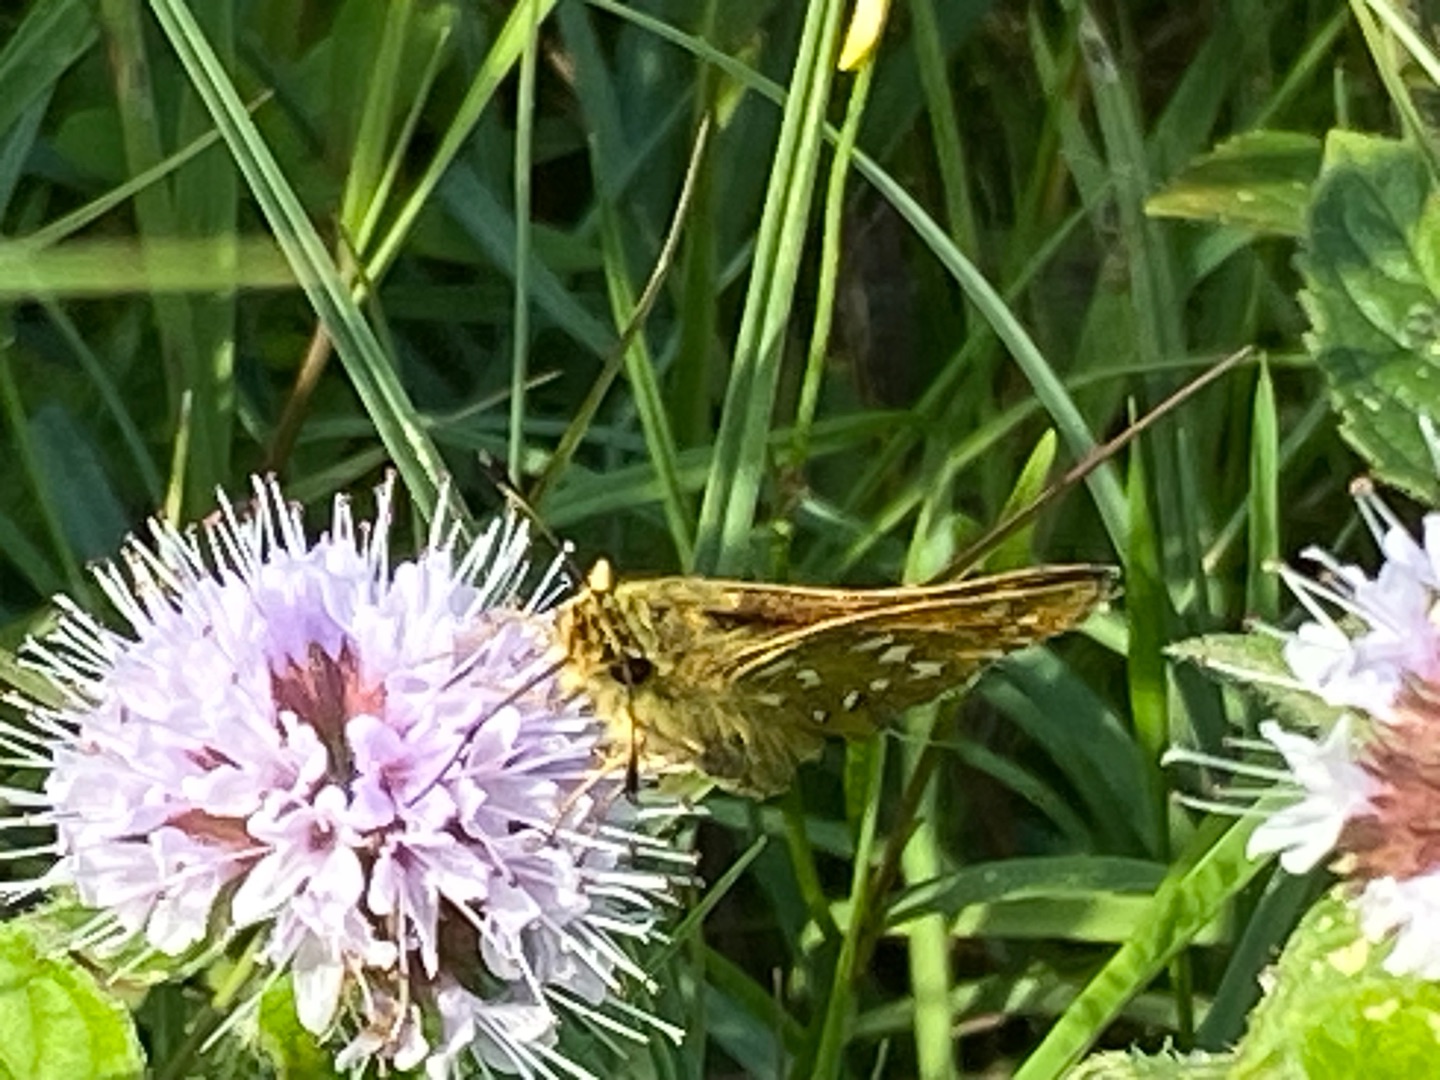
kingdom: Animalia
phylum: Arthropoda
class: Insecta
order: Lepidoptera
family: Hesperiidae
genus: Hesperia
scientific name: Hesperia comma
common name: Kommabredpande
